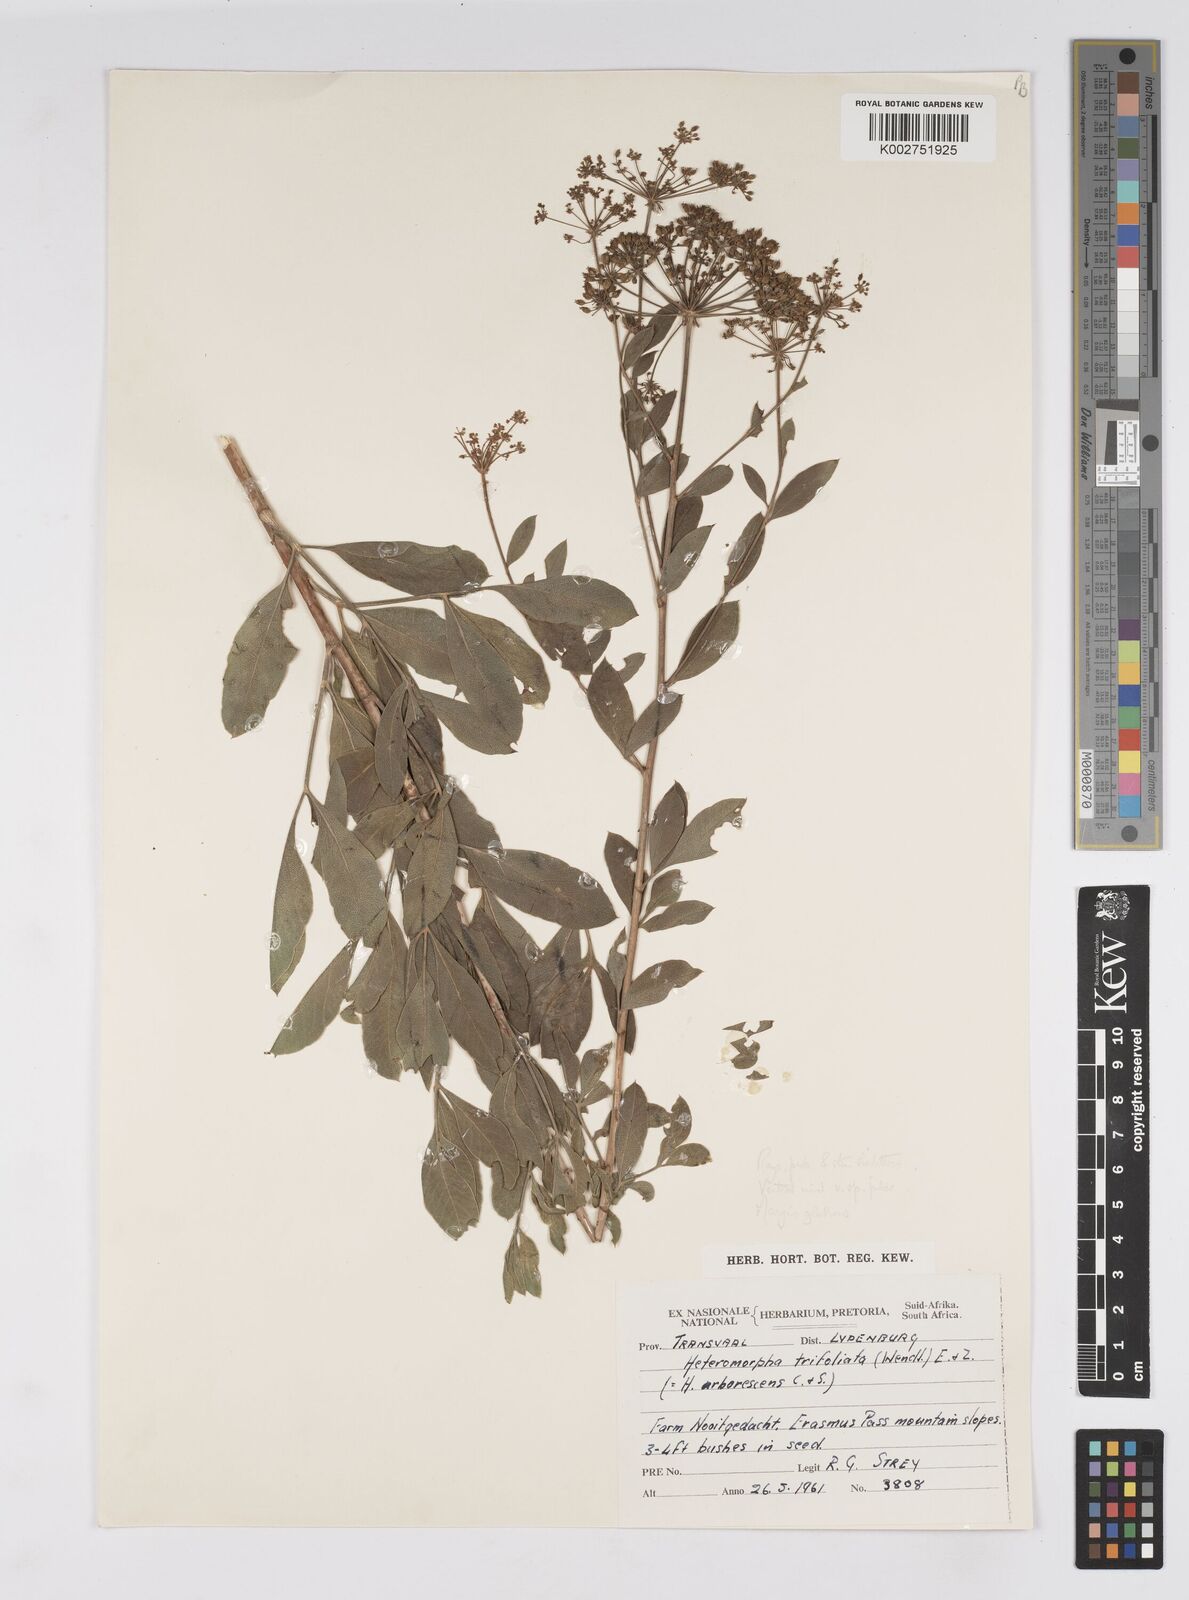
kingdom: Plantae
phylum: Tracheophyta
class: Magnoliopsida
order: Apiales
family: Apiaceae
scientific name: Apiaceae
